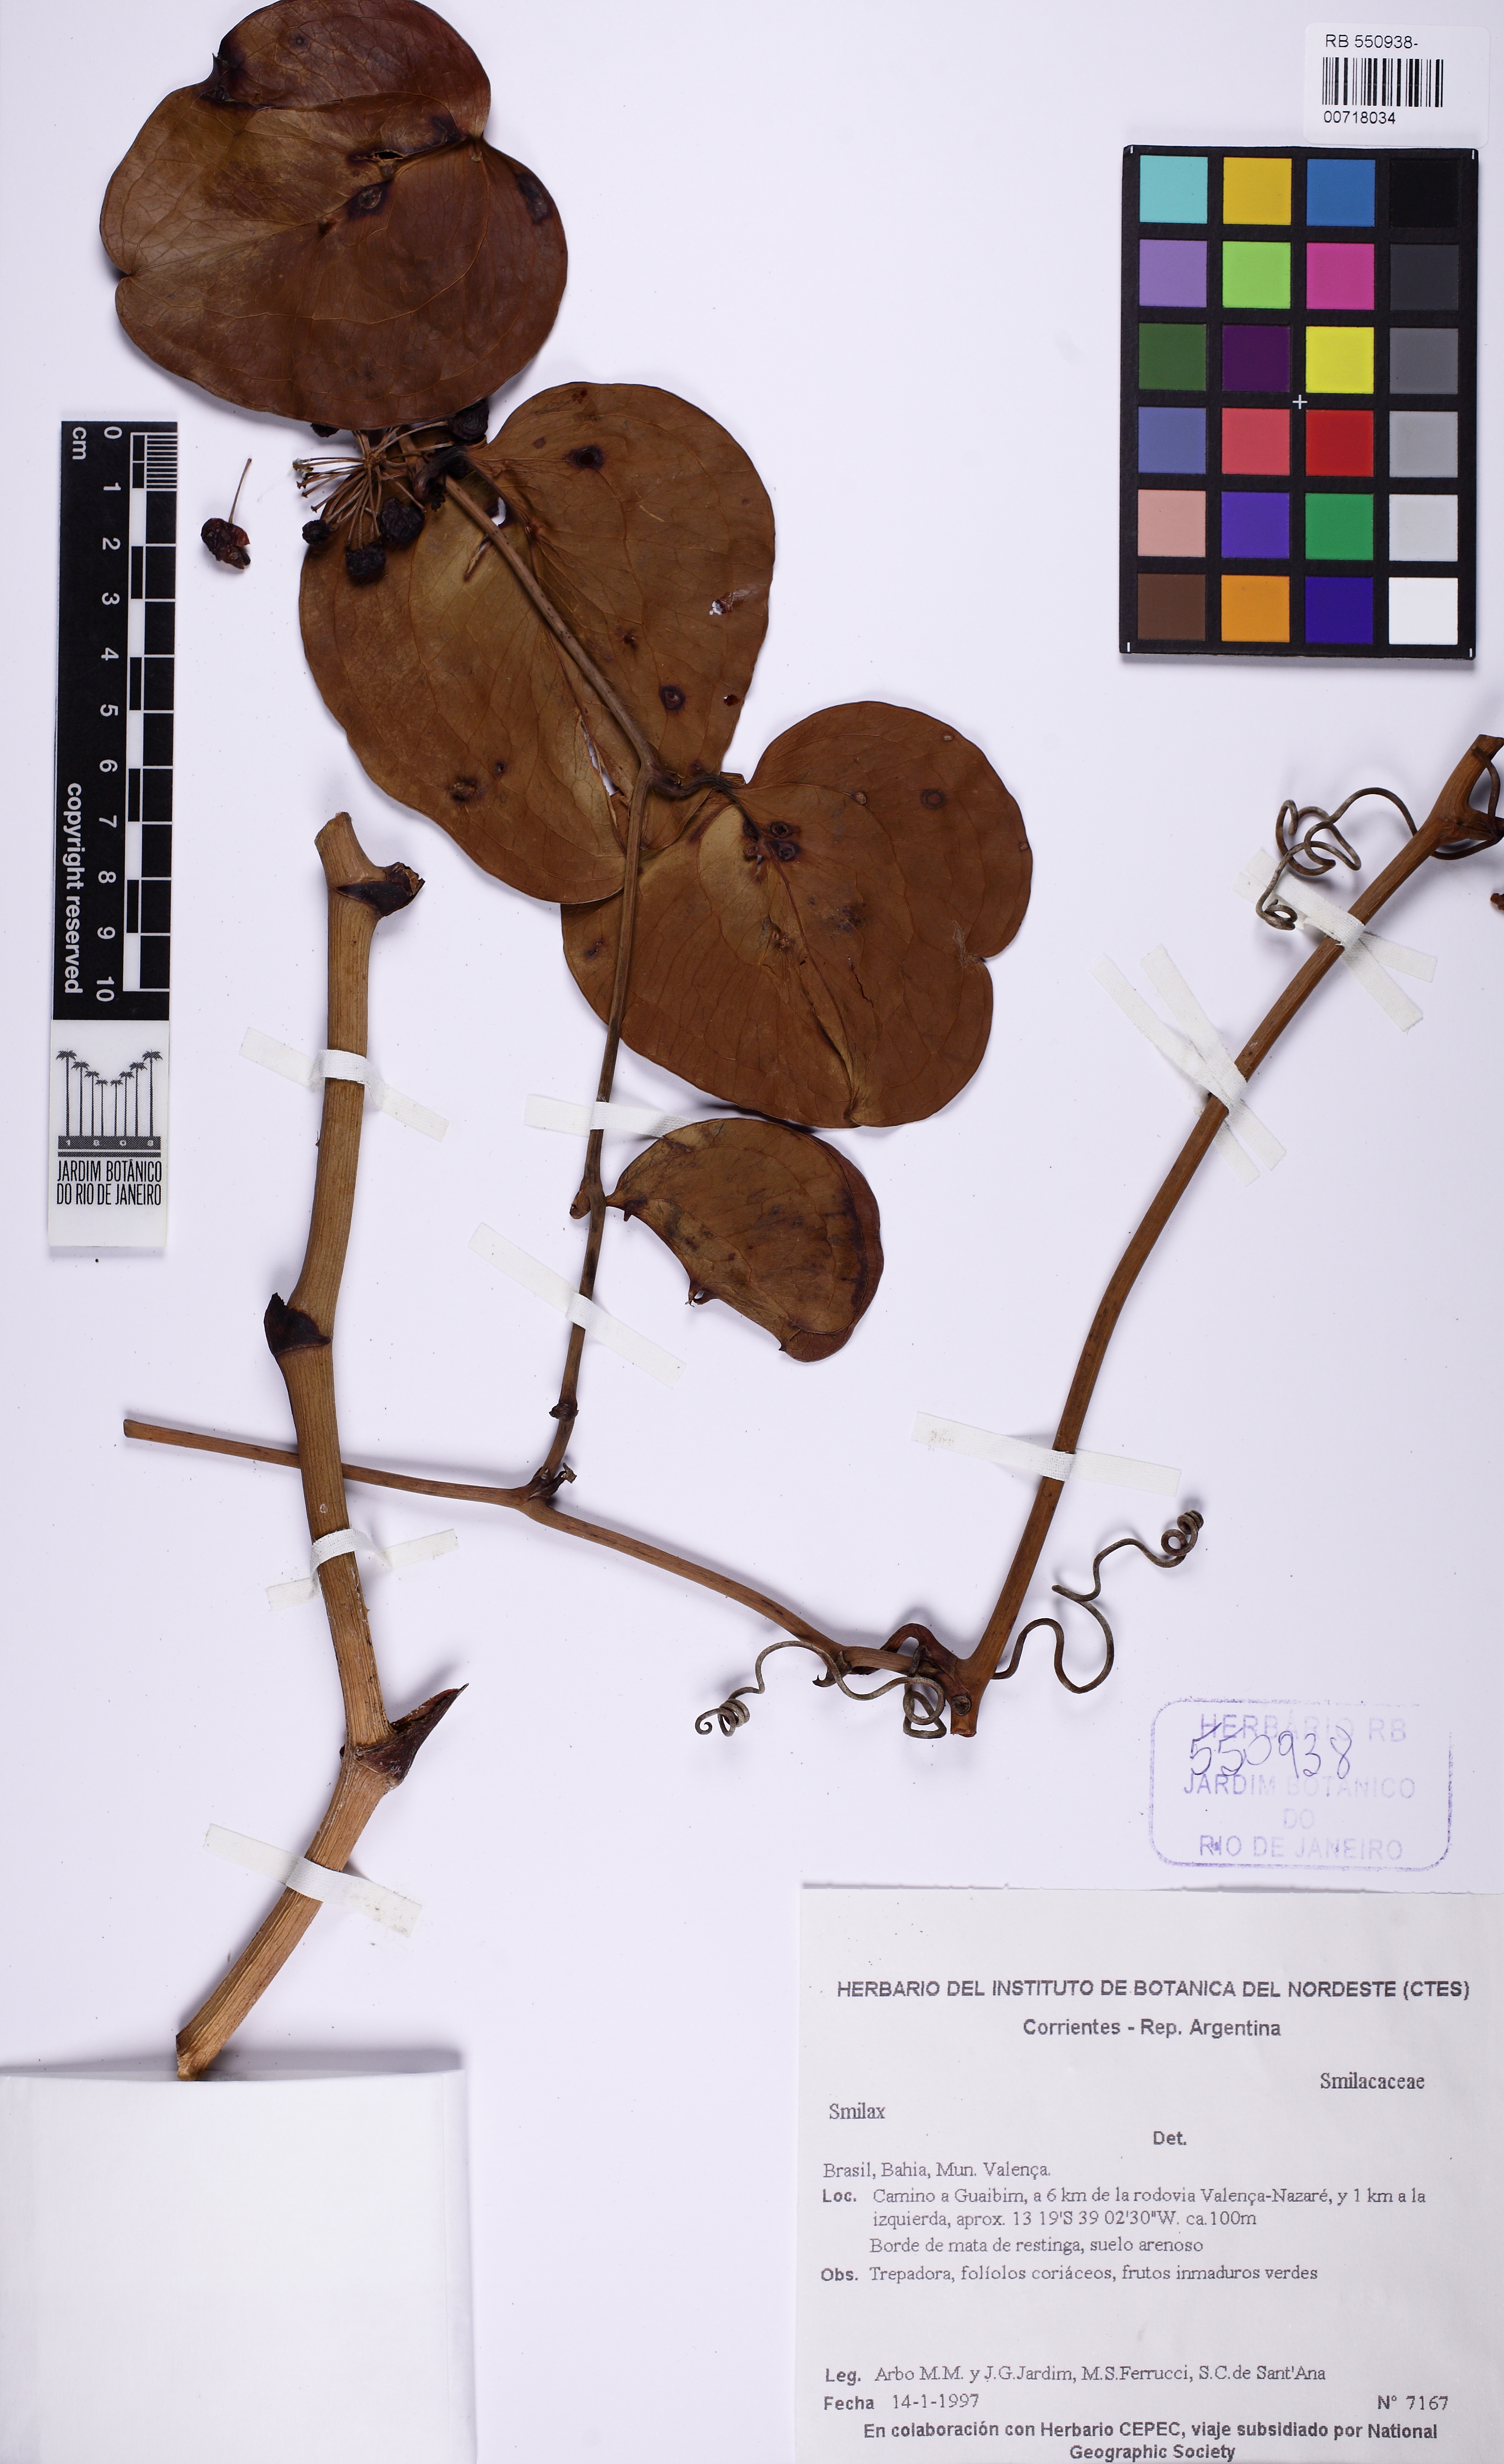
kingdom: Plantae
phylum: Tracheophyta
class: Liliopsida
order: Liliales
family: Smilacaceae
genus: Smilax
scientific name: Smilax
